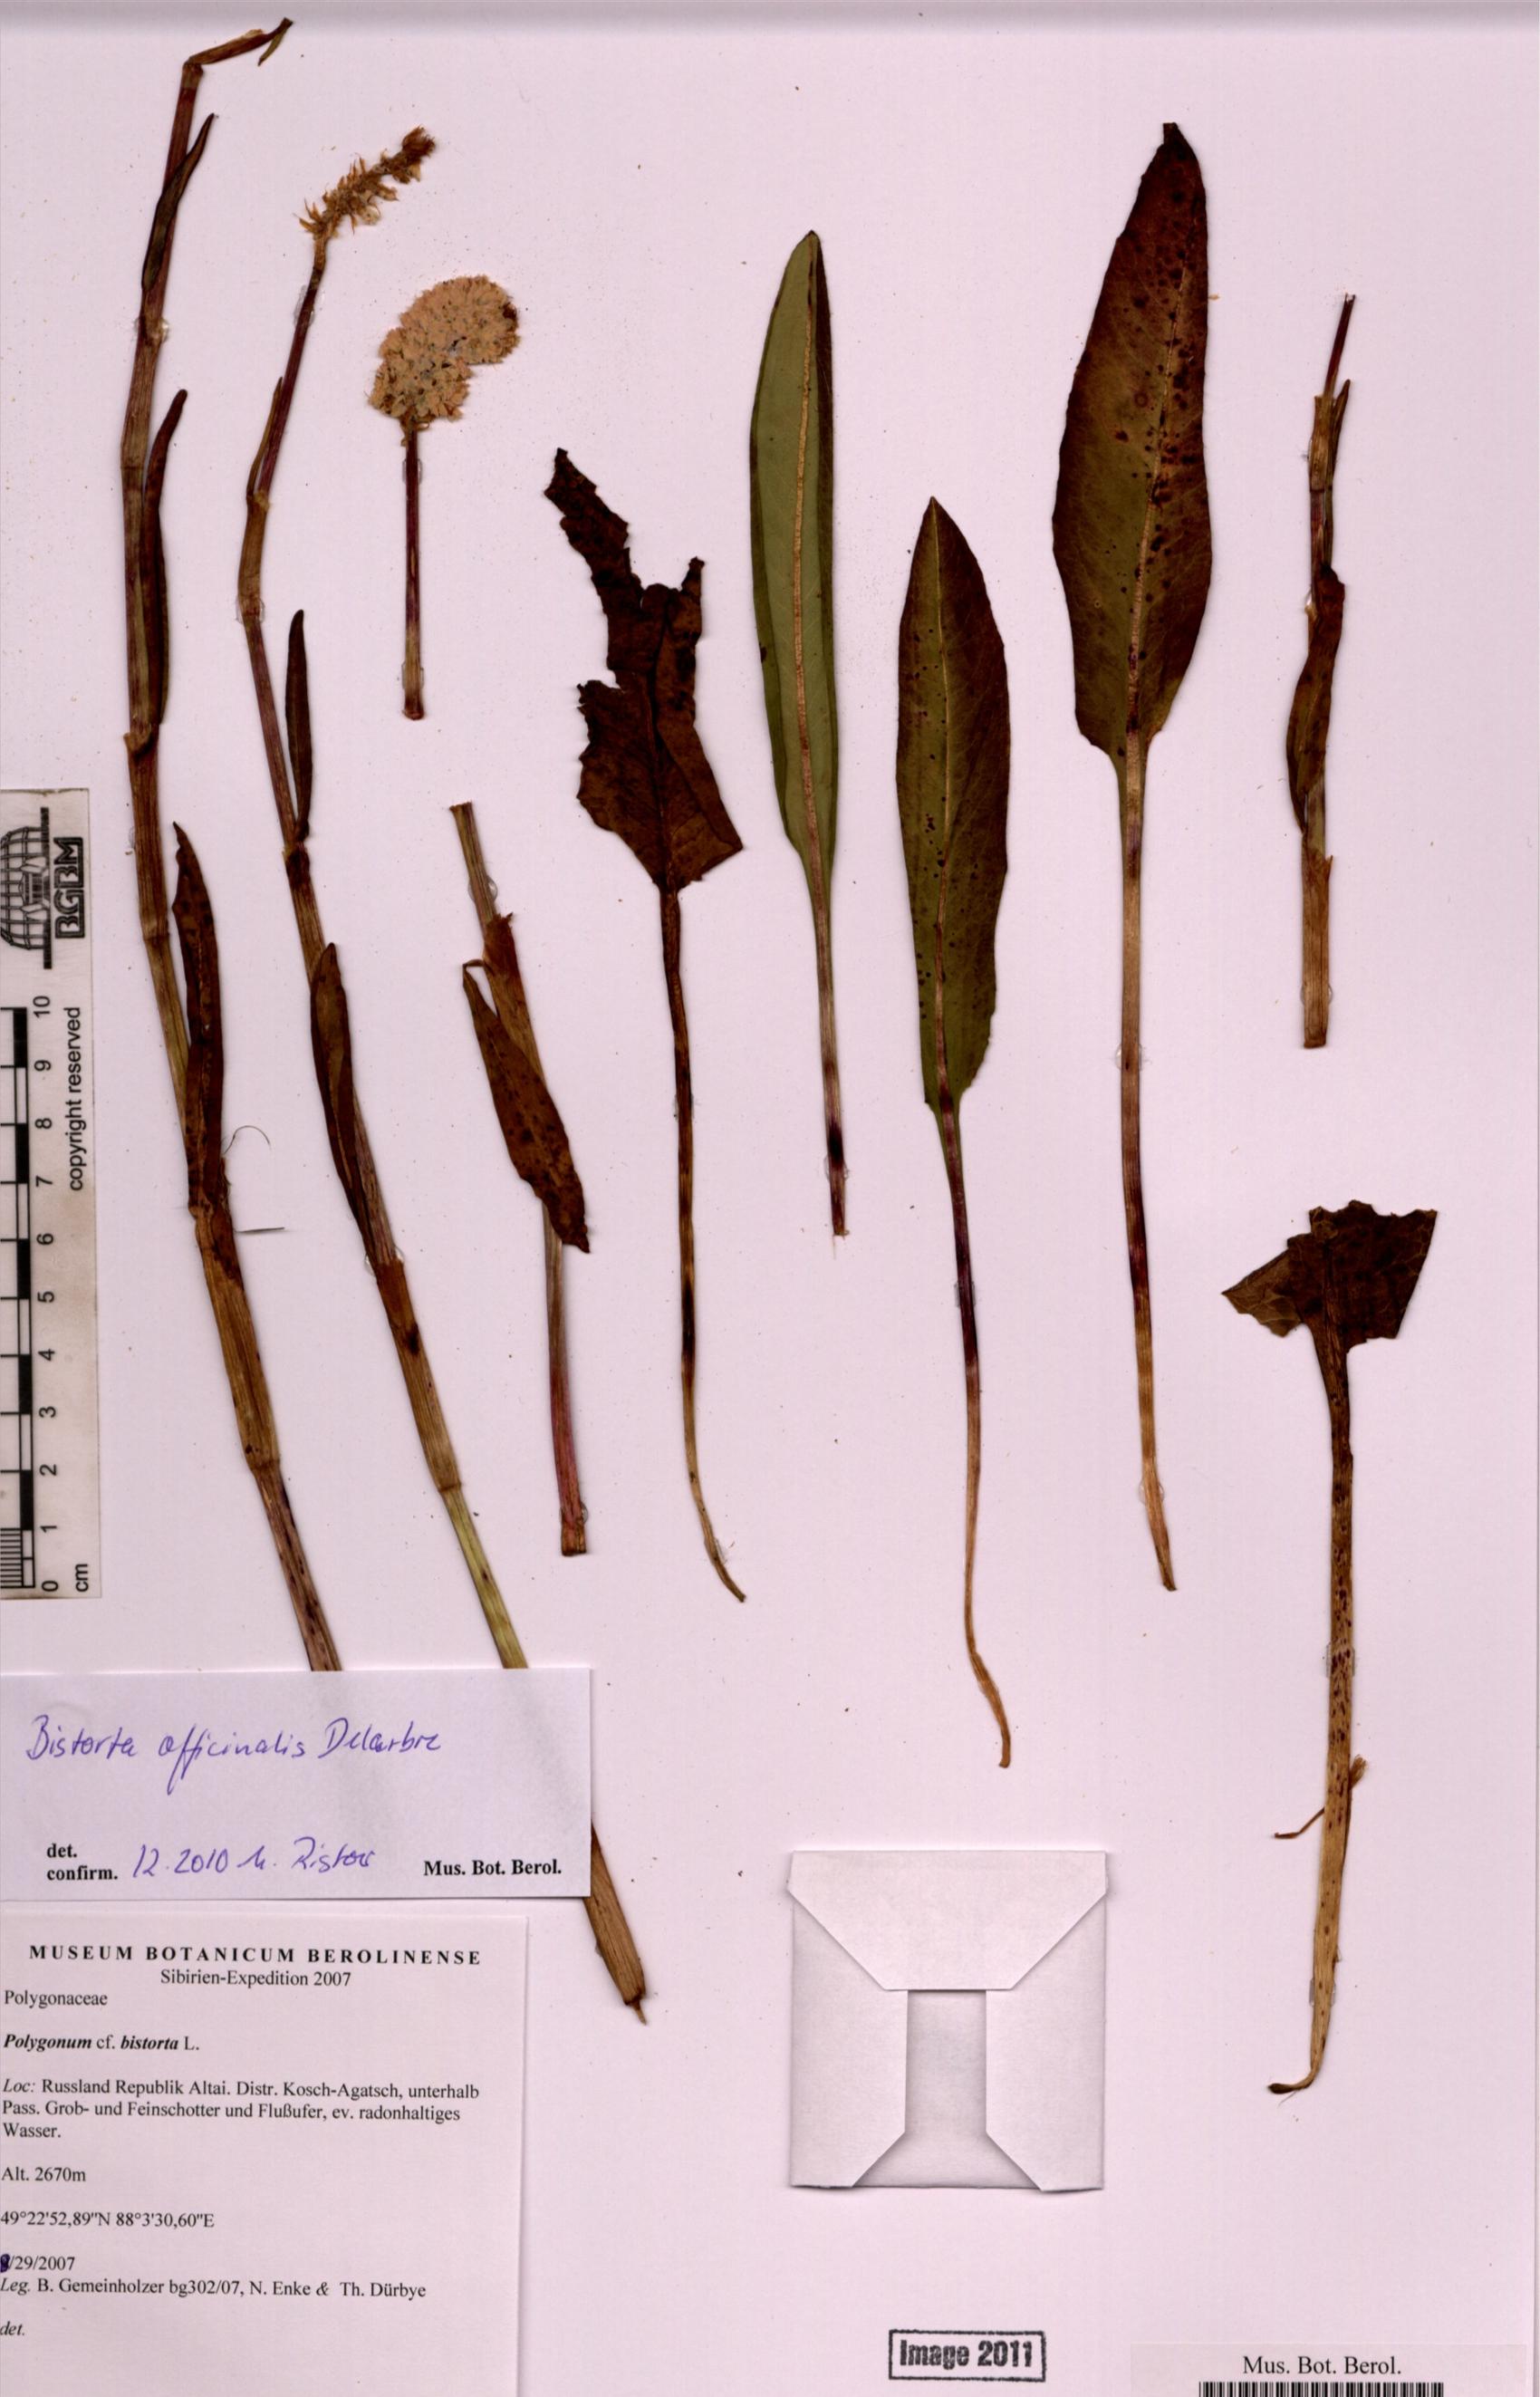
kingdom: Plantae
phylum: Tracheophyta
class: Magnoliopsida
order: Caryophyllales
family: Polygonaceae
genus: Bistorta
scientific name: Bistorta officinalis
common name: Common bistort
